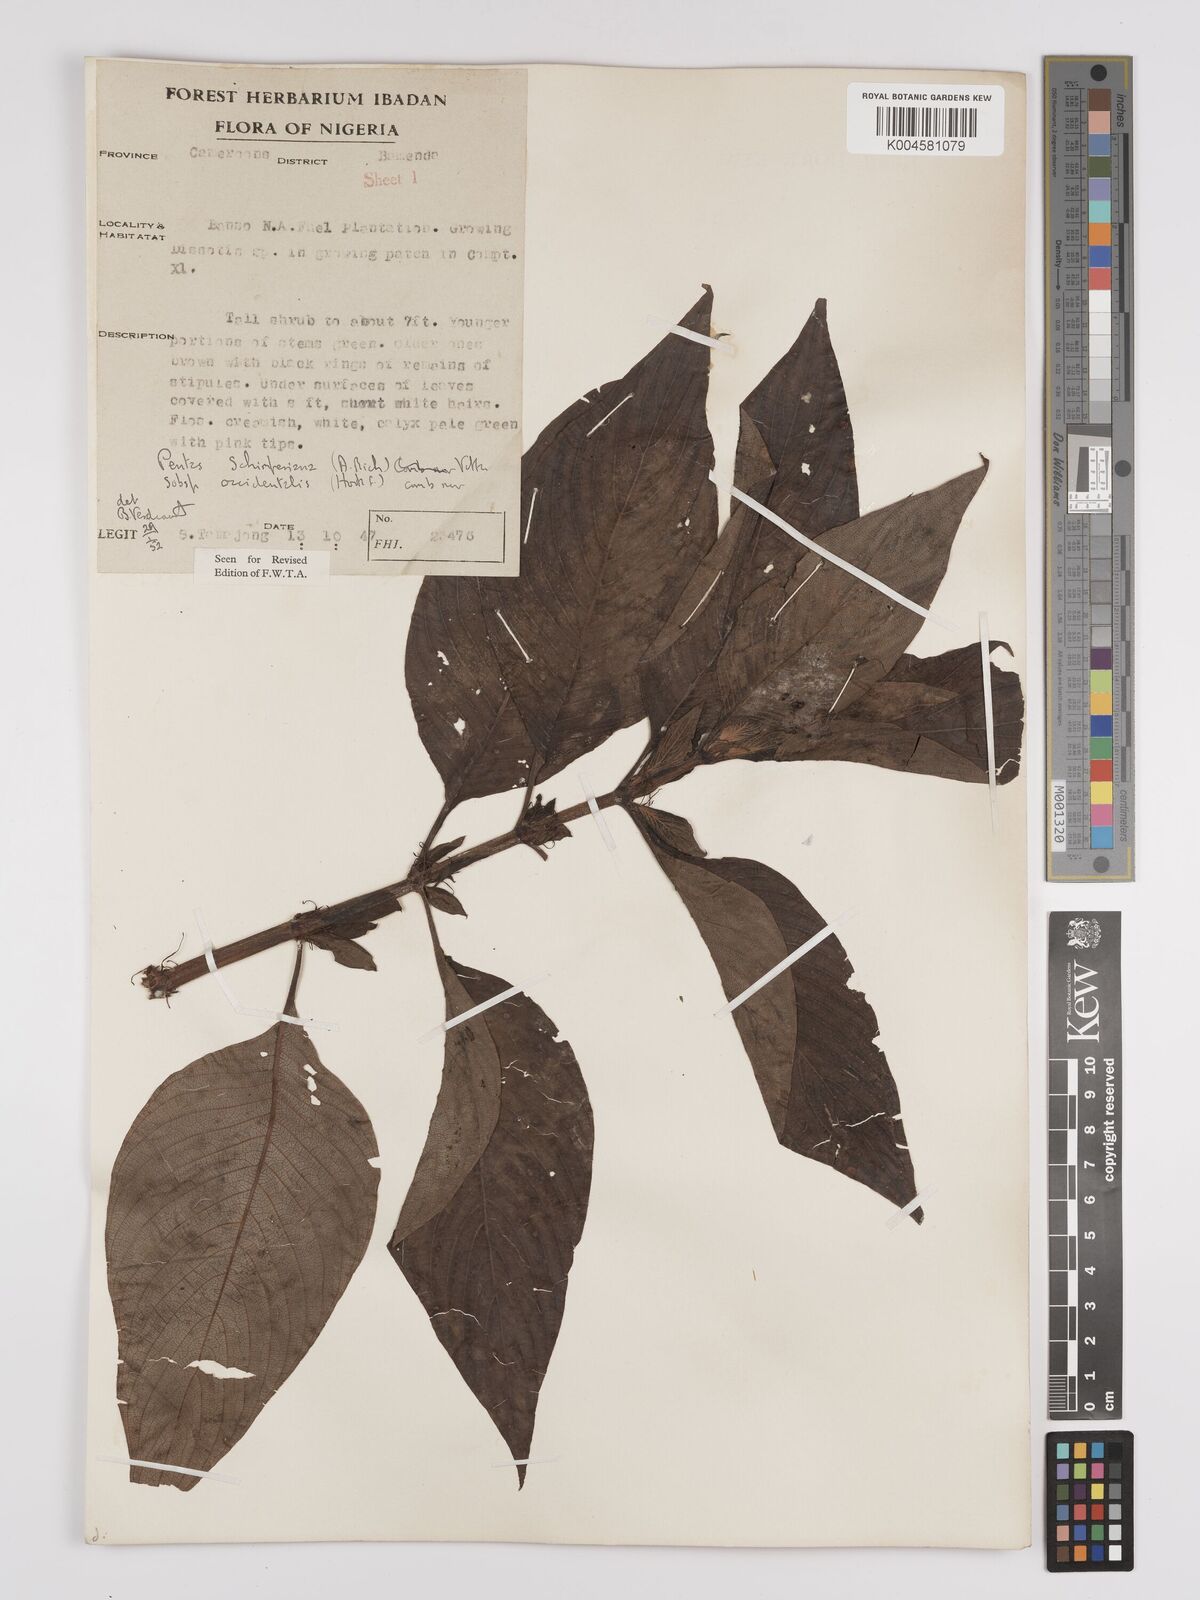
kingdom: Plantae
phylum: Tracheophyta
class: Magnoliopsida
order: Gentianales
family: Rubiaceae
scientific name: Rubiaceae
